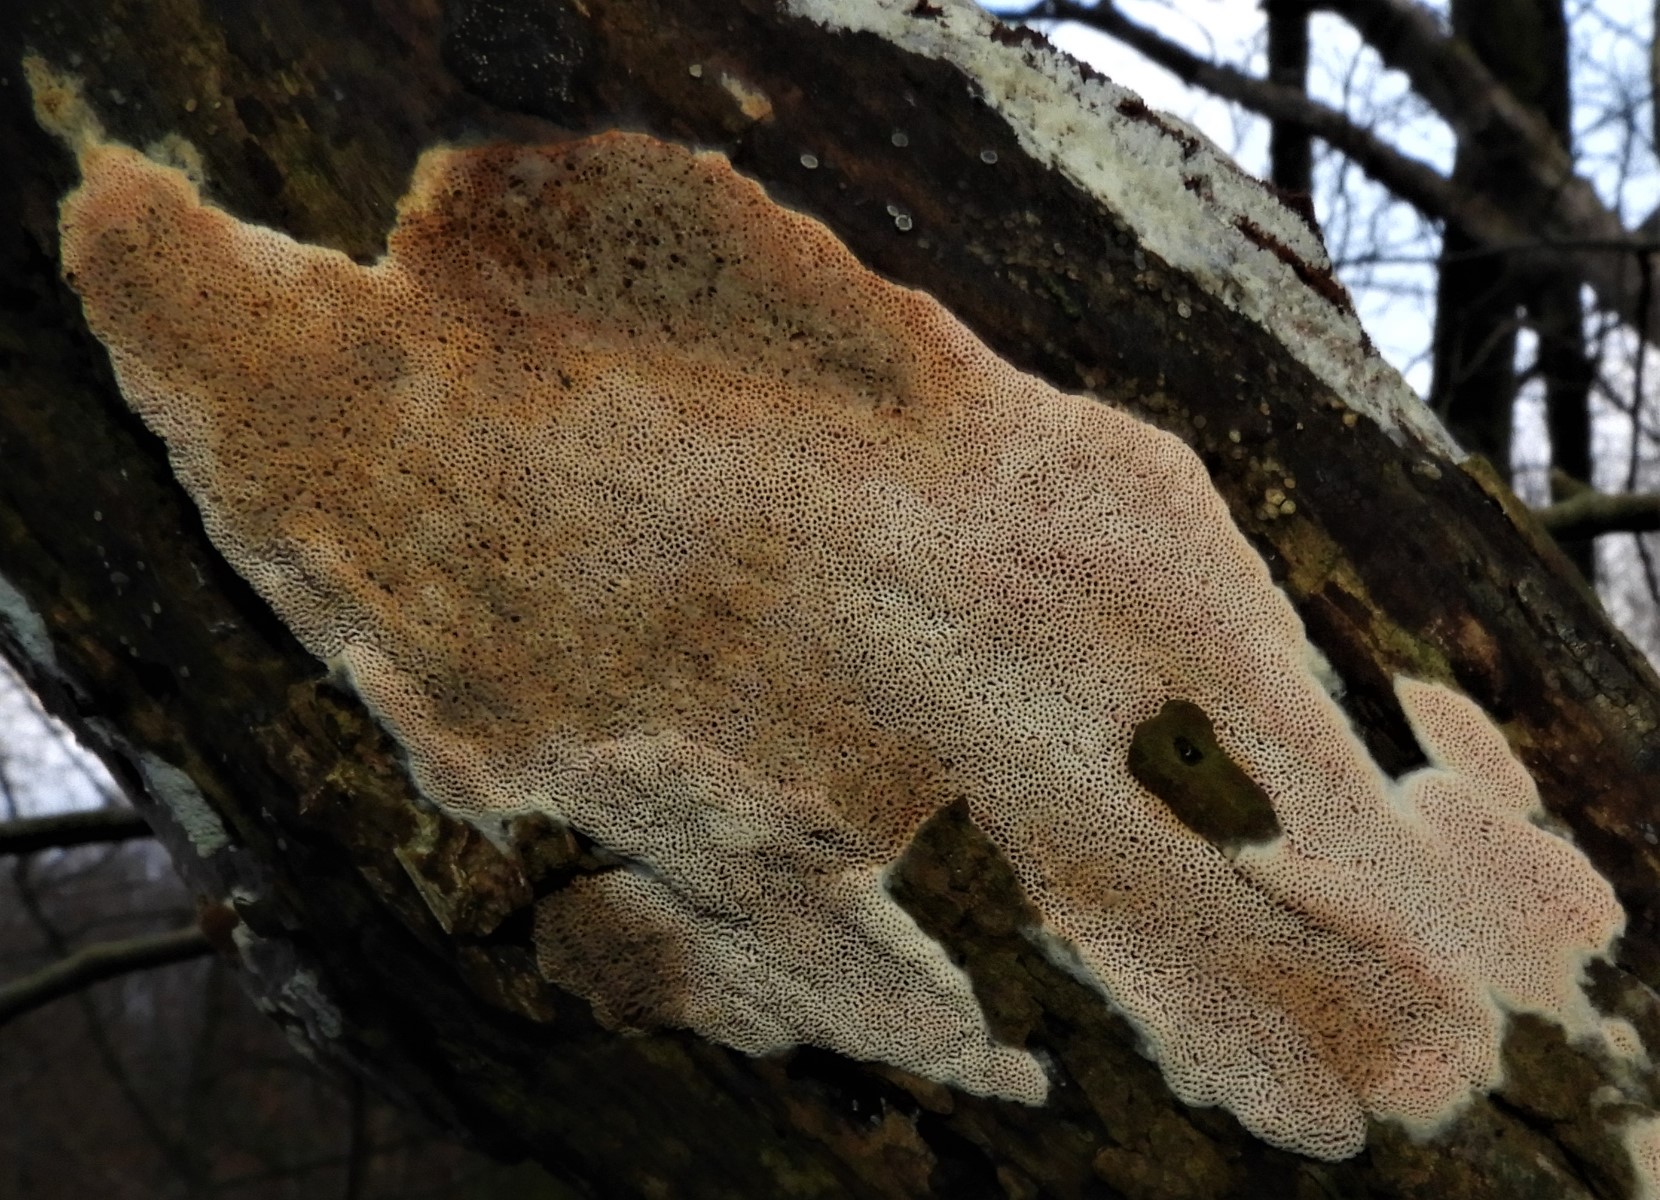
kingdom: Fungi
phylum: Basidiomycota
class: Agaricomycetes
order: Polyporales
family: Irpicaceae
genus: Ceriporia
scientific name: Ceriporia
